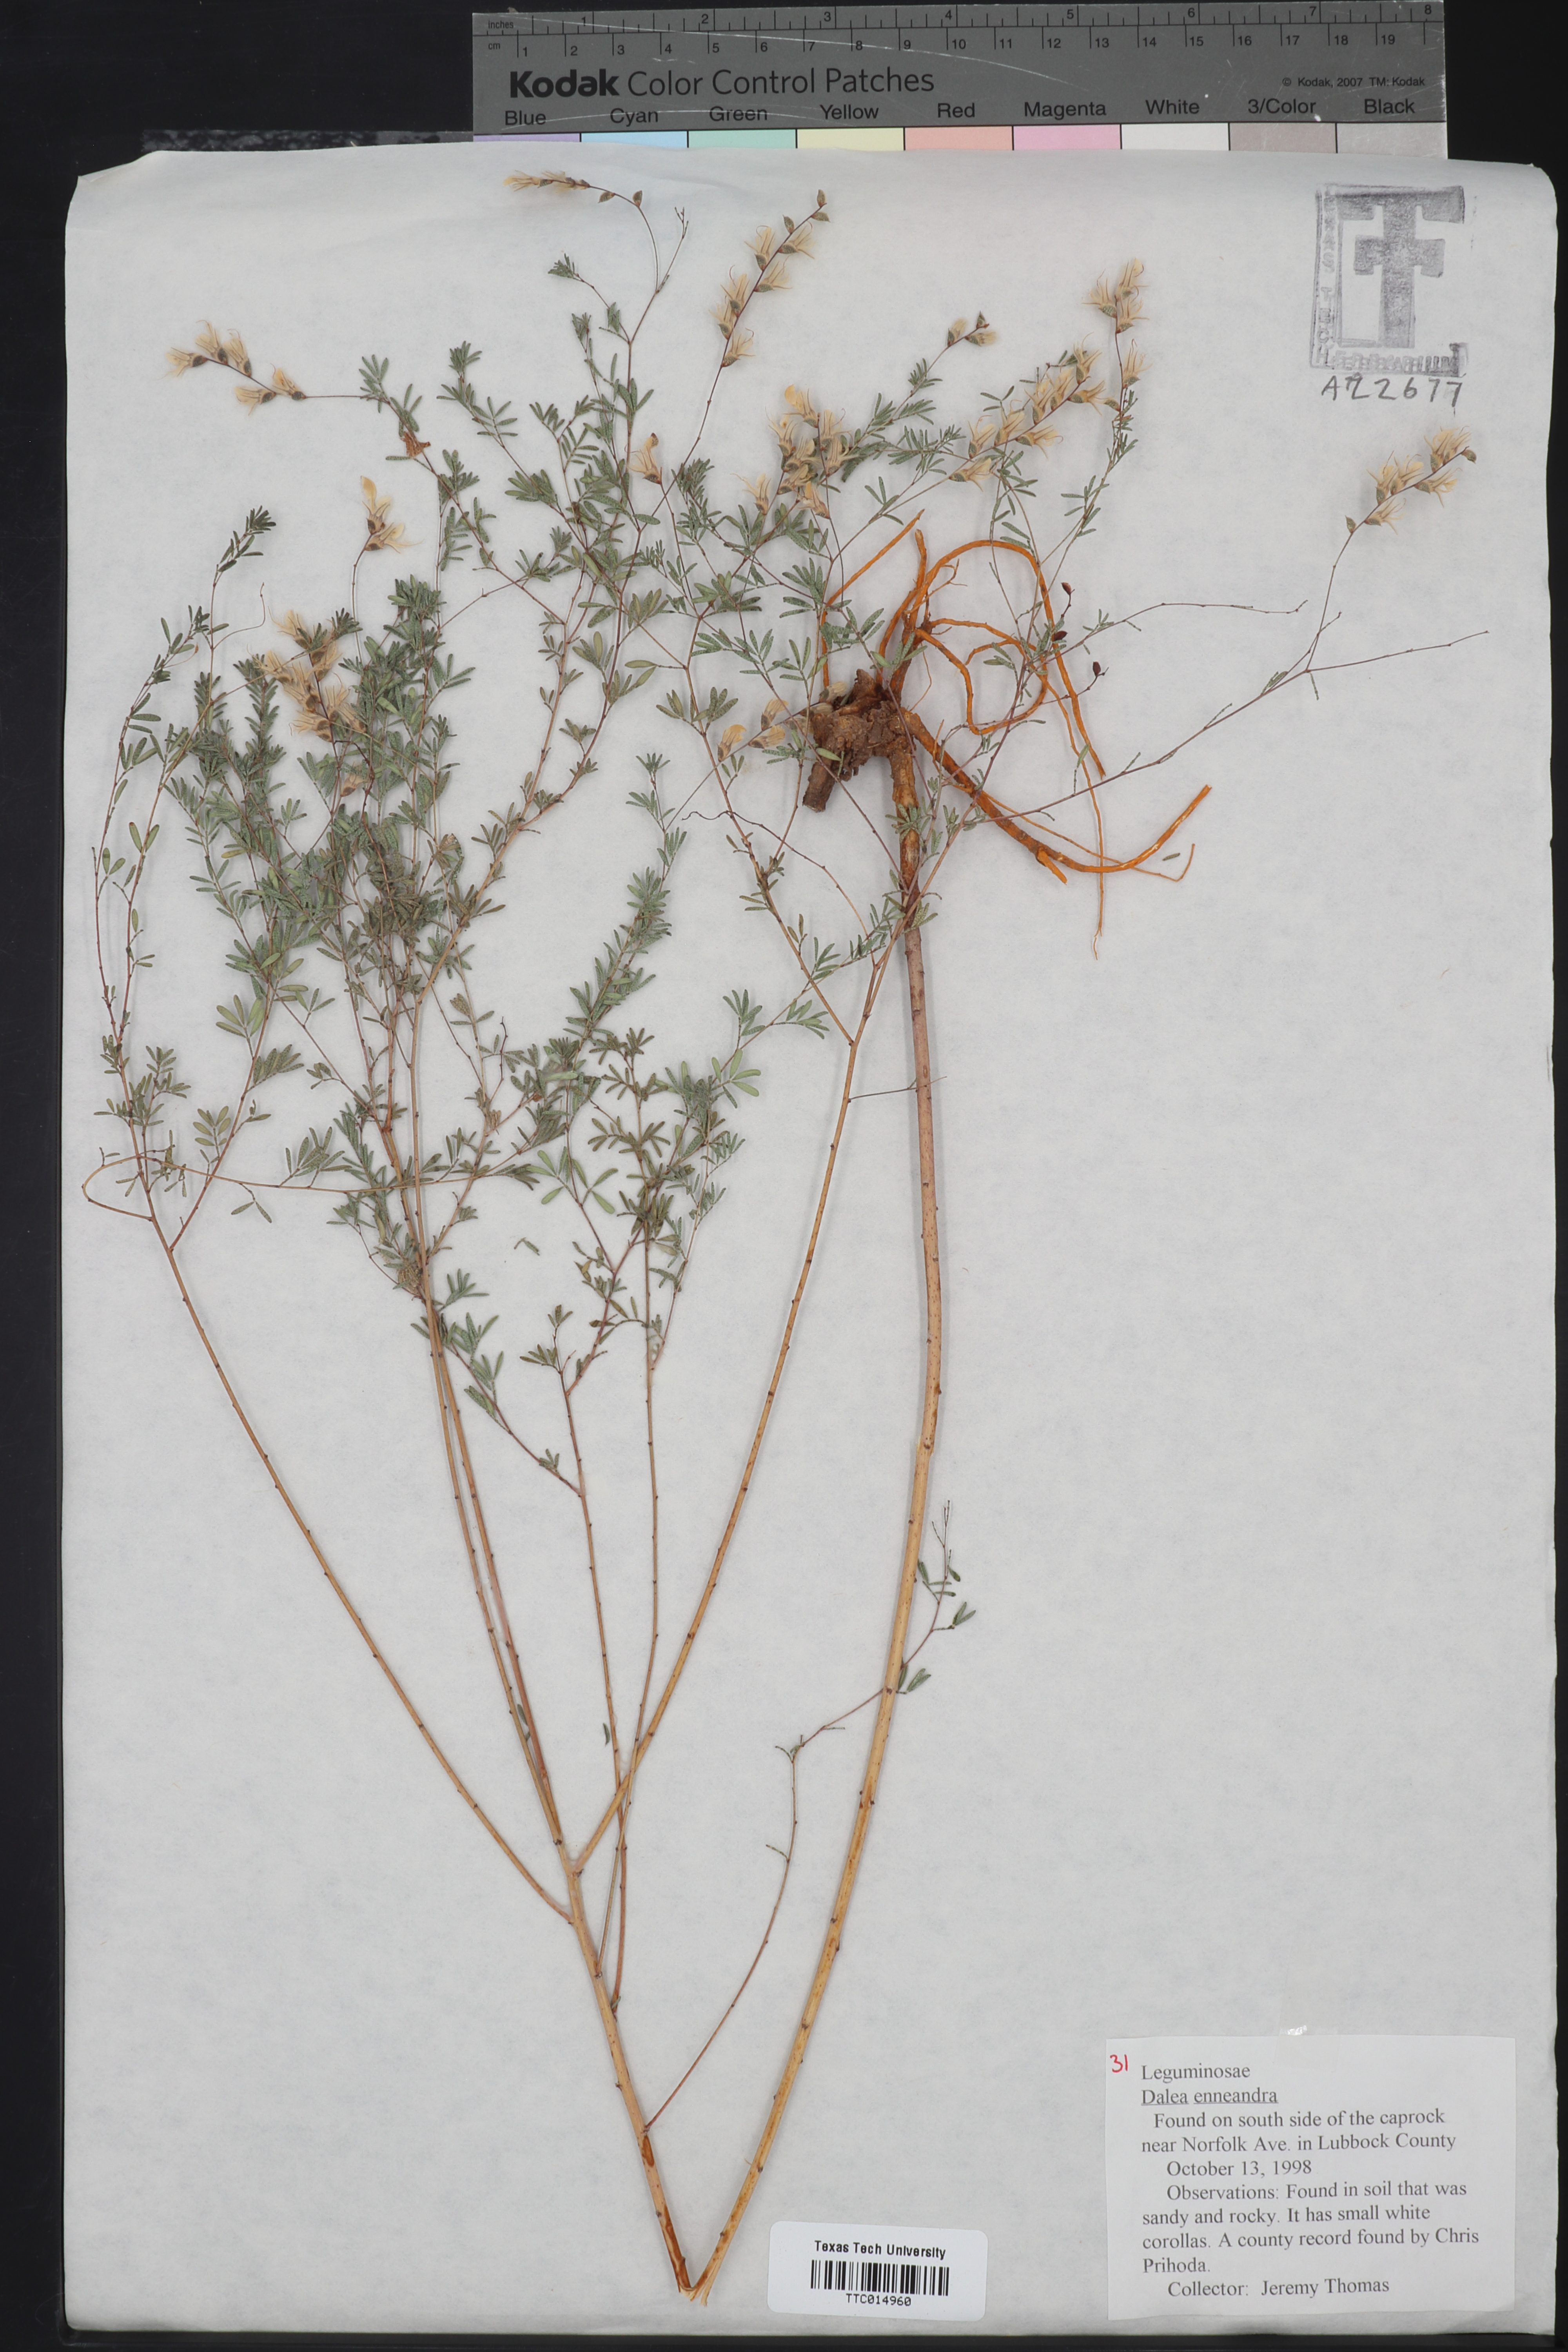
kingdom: Plantae
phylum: Tracheophyta
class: Magnoliopsida
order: Fabales
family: Fabaceae
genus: Dalea
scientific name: Dalea enneandra
